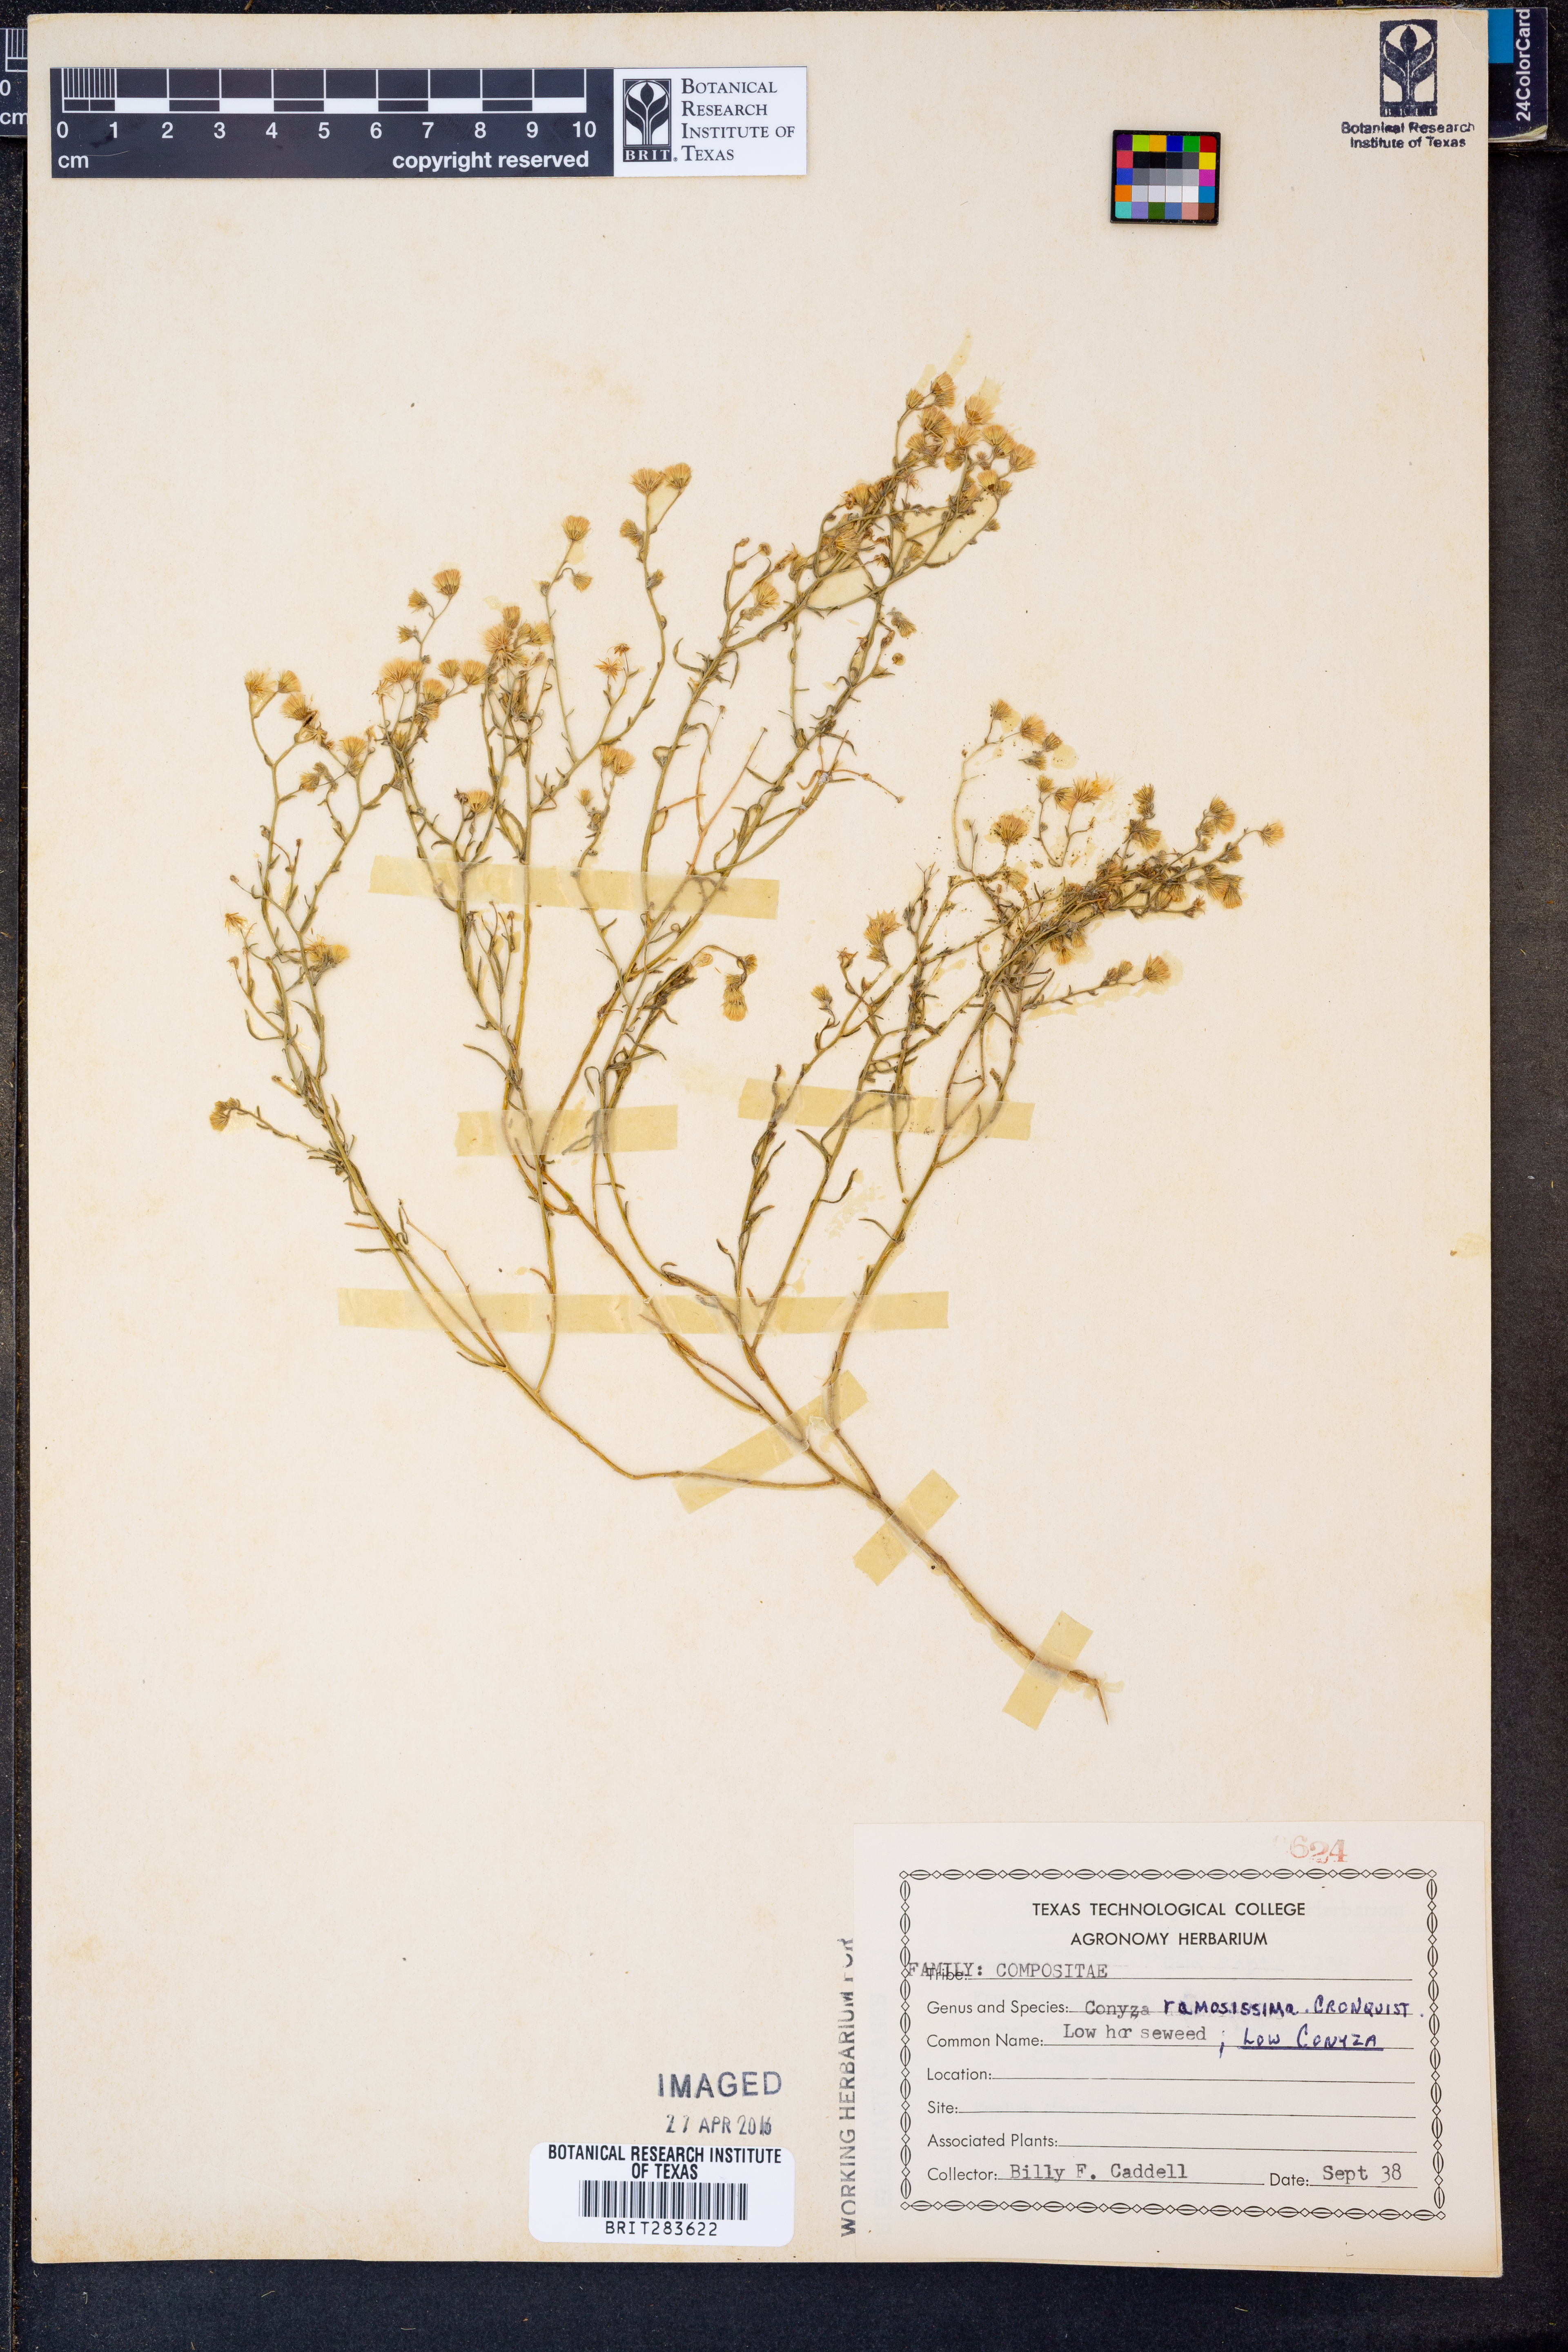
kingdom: Plantae
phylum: Tracheophyta
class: Magnoliopsida
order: Asterales
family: Asteraceae
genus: Erigeron
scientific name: Erigeron divaricatus
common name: Dwarf conyza
